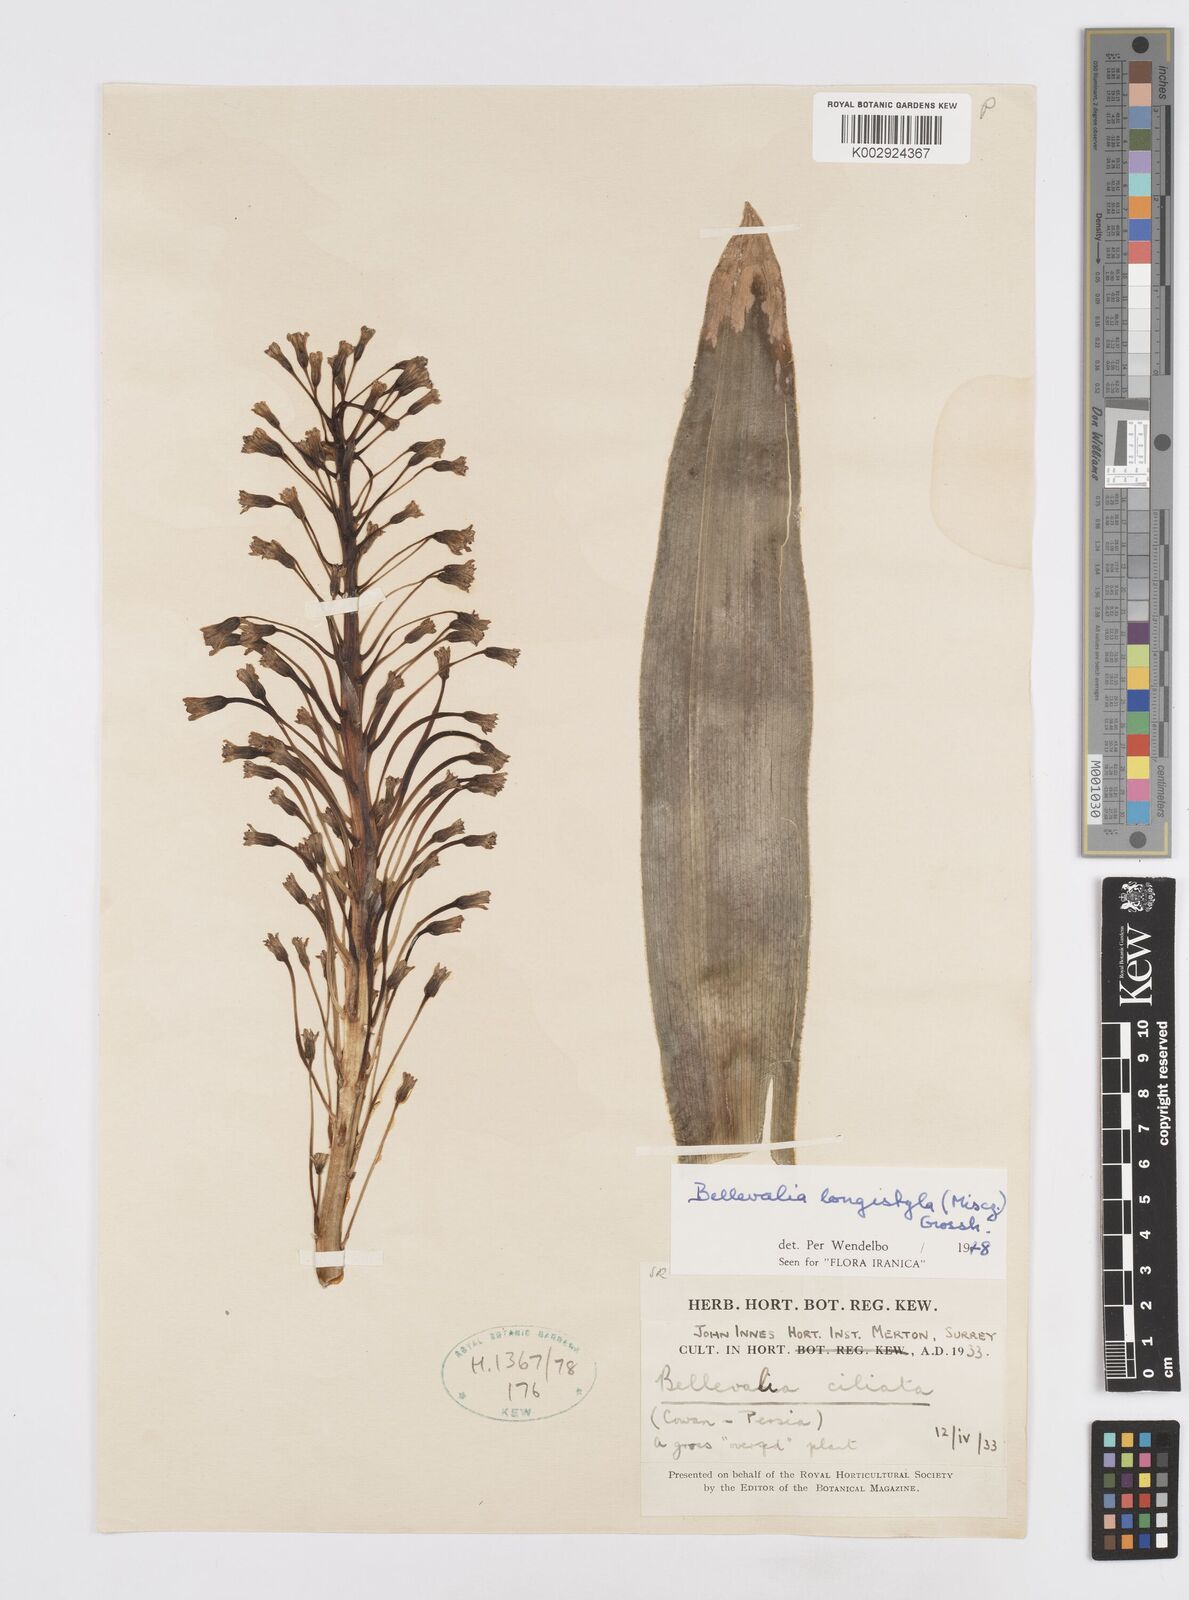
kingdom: Plantae
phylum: Tracheophyta
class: Liliopsida
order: Asparagales
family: Asparagaceae
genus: Bellevalia
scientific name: Bellevalia longistyla
